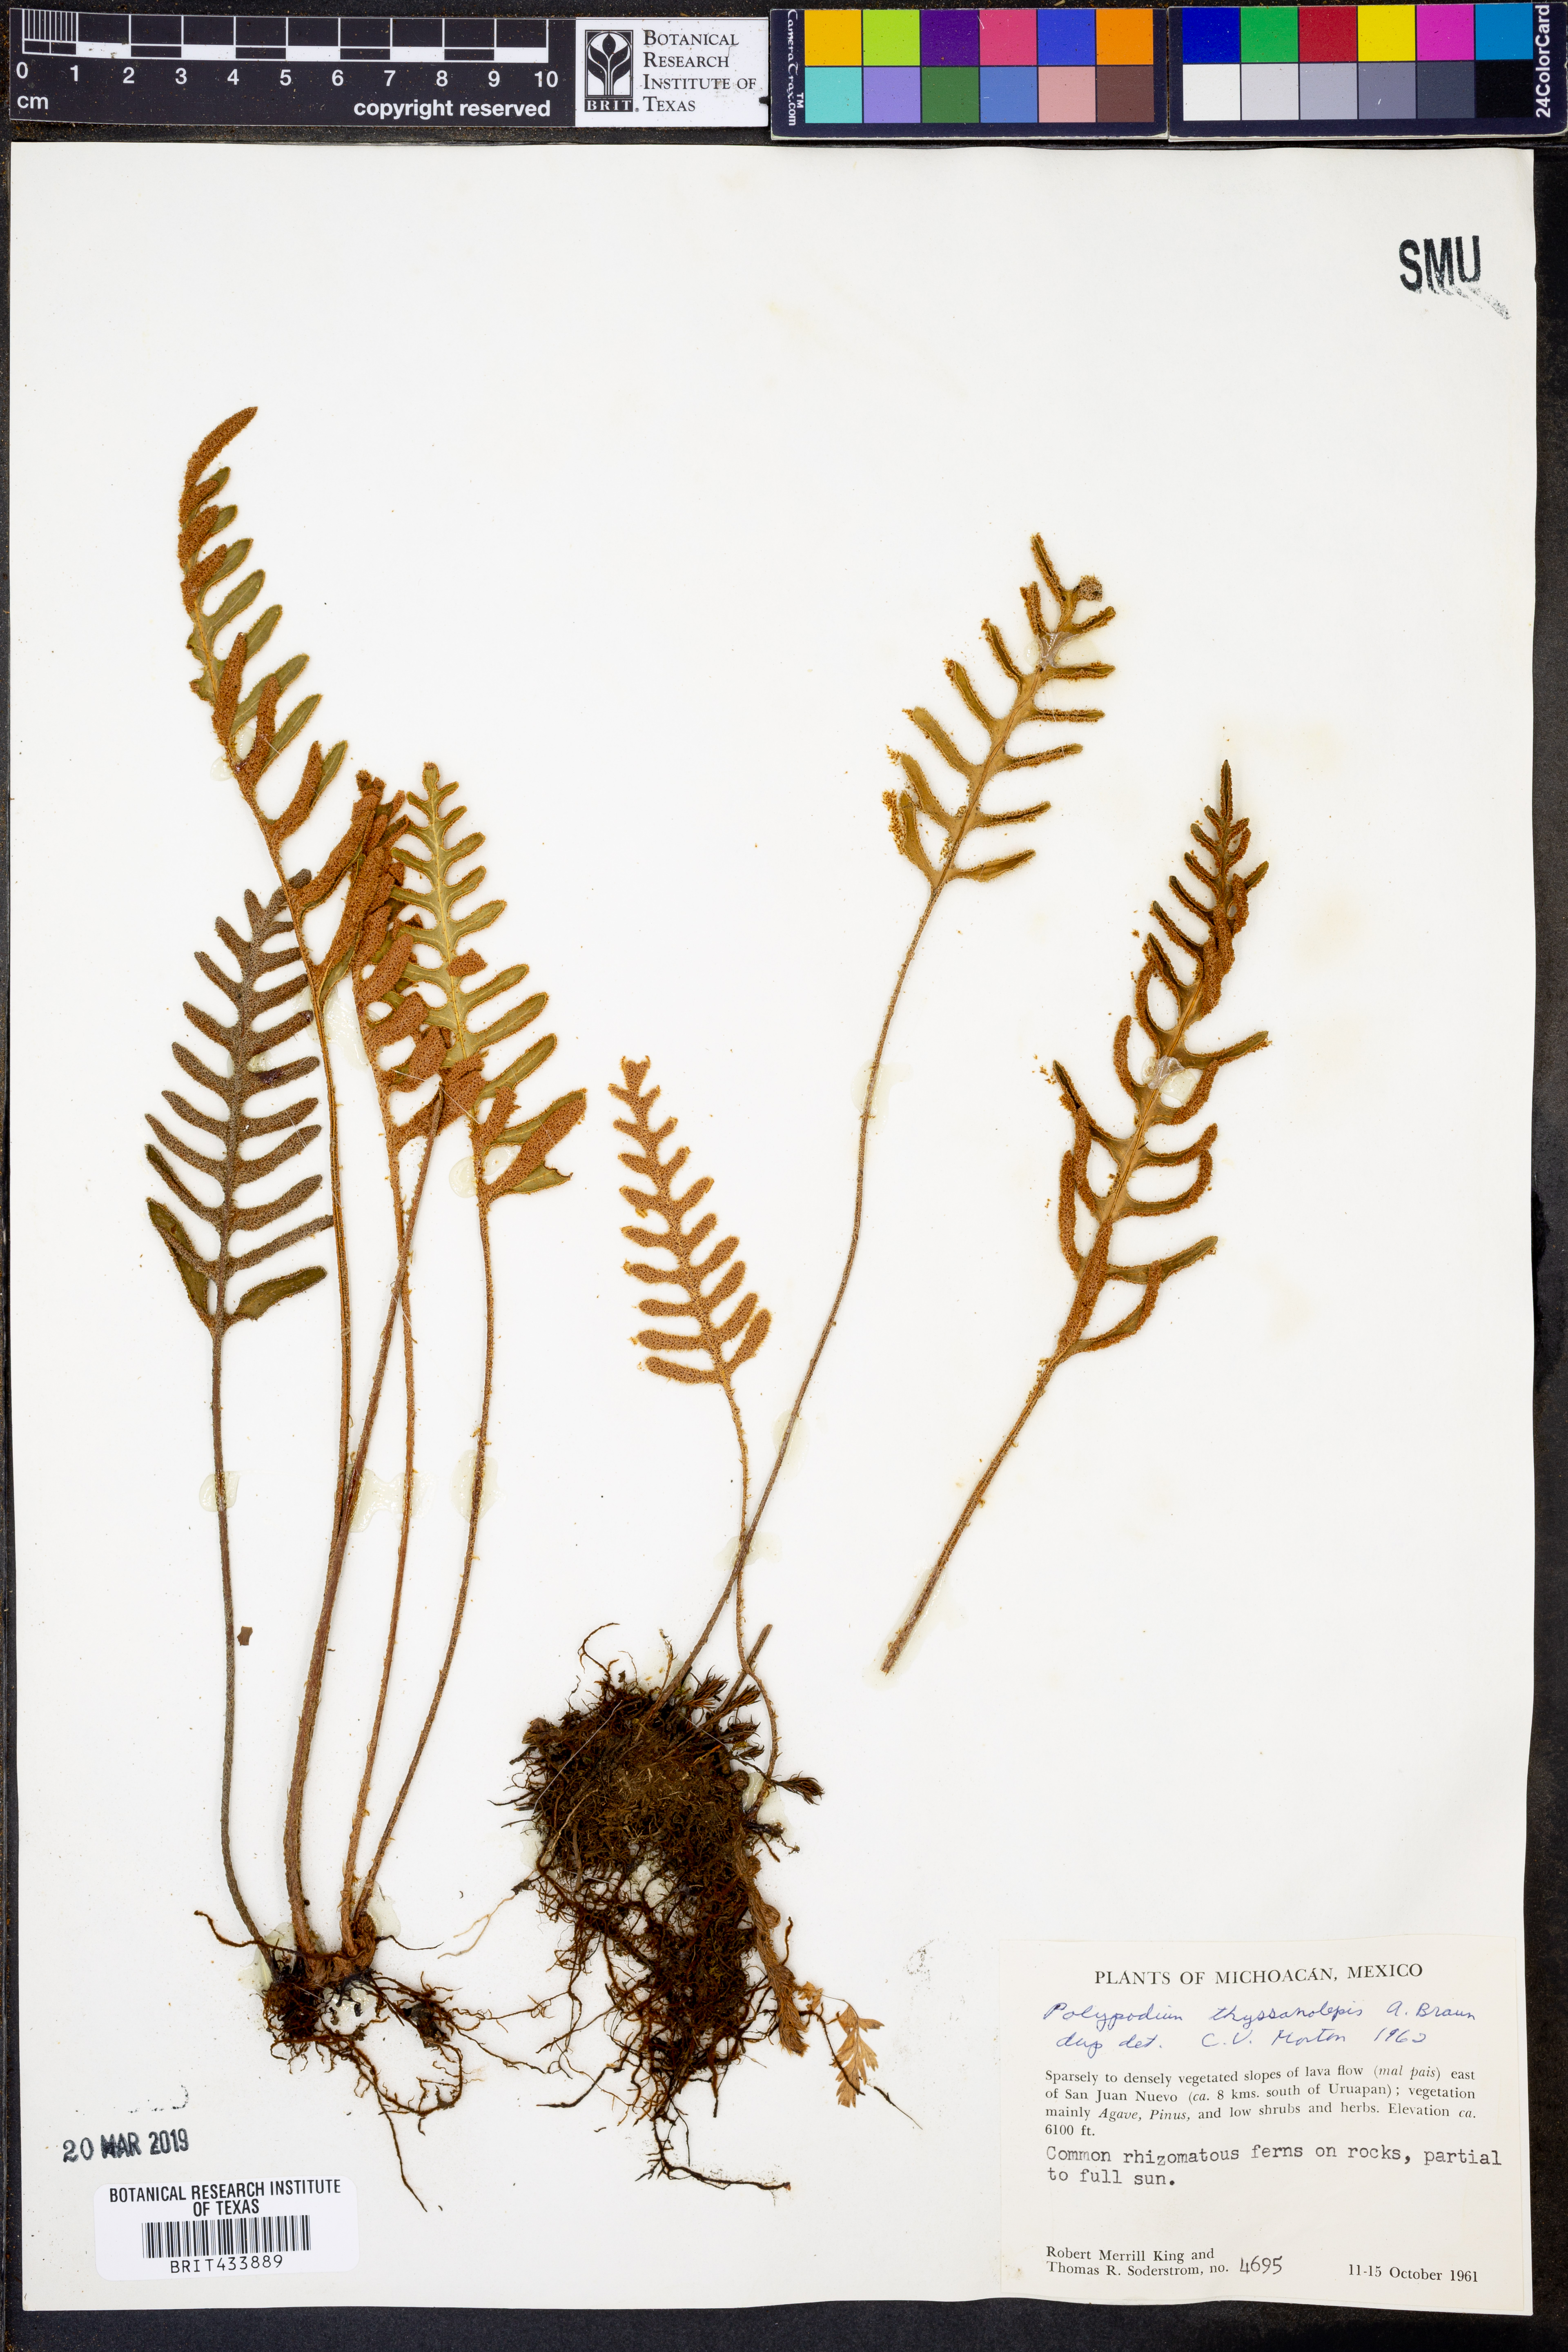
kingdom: Plantae
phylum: Tracheophyta
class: Polypodiopsida
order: Polypodiales
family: Polypodiaceae
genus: Pleopeltis
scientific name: Pleopeltis thyssanolepis
